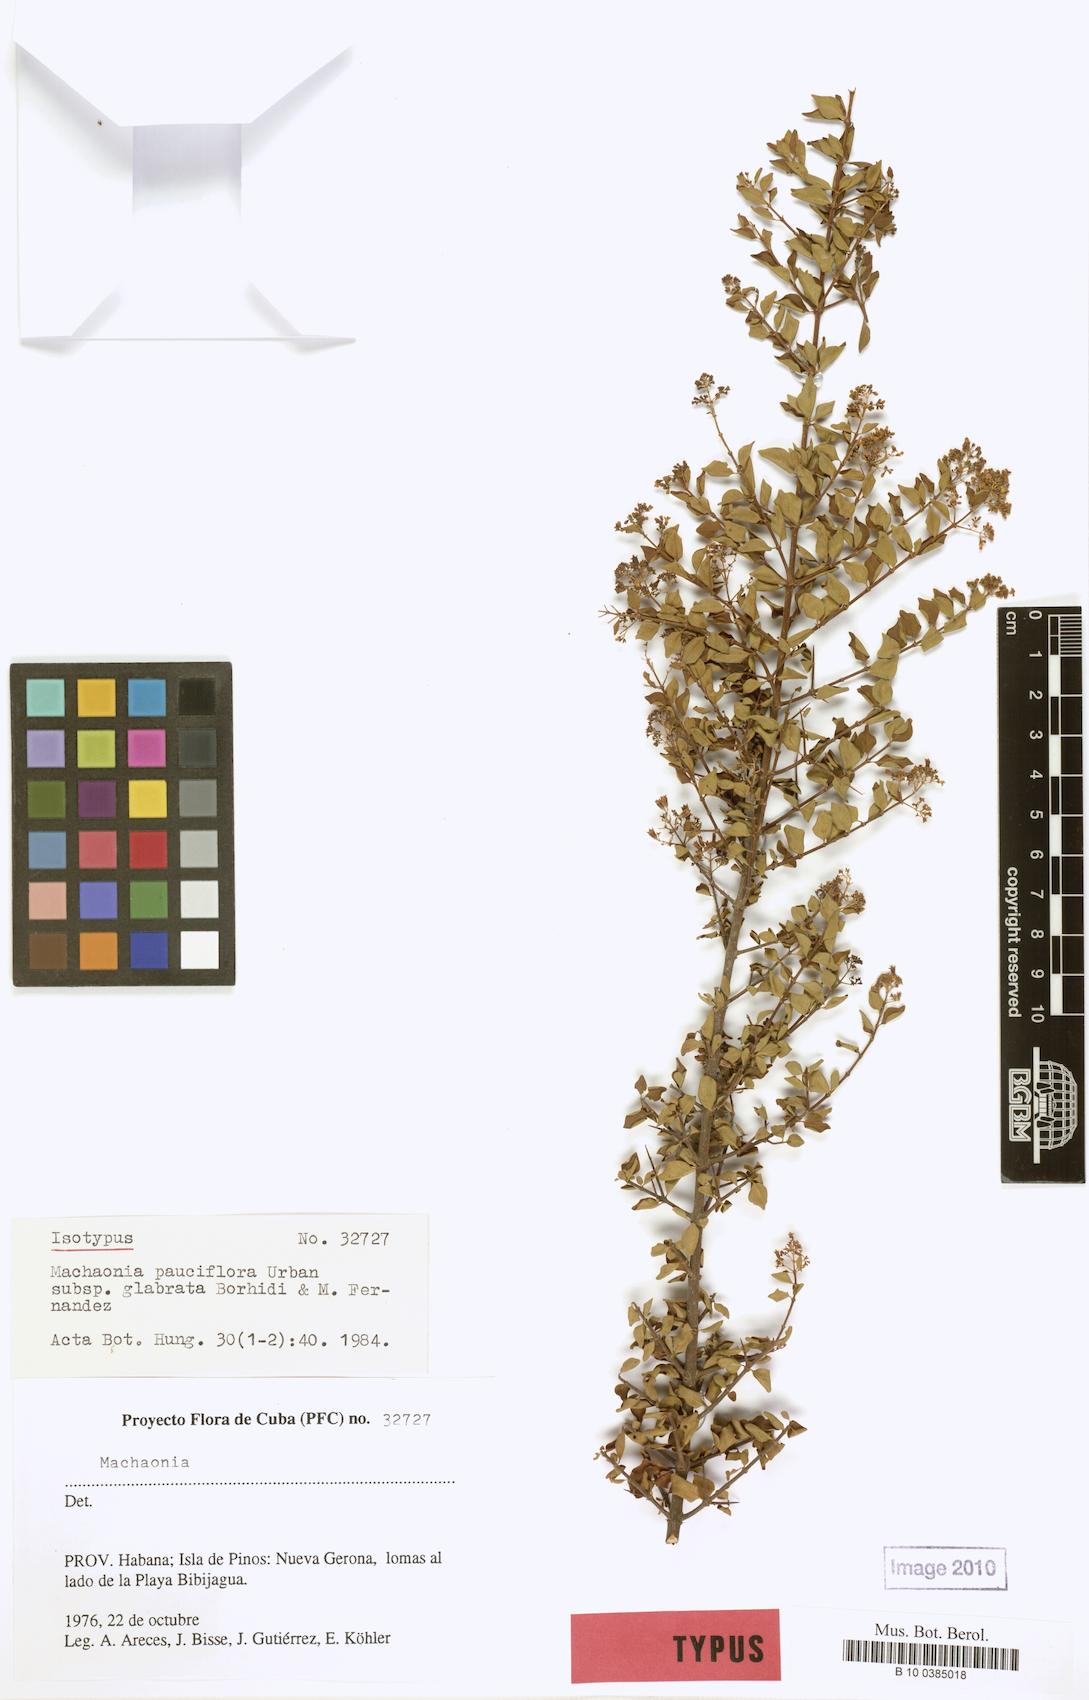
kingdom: Plantae
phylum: Tracheophyta
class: Magnoliopsida
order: Gentianales
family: Rubiaceae
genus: Machaonia
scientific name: Machaonia pauciflora
